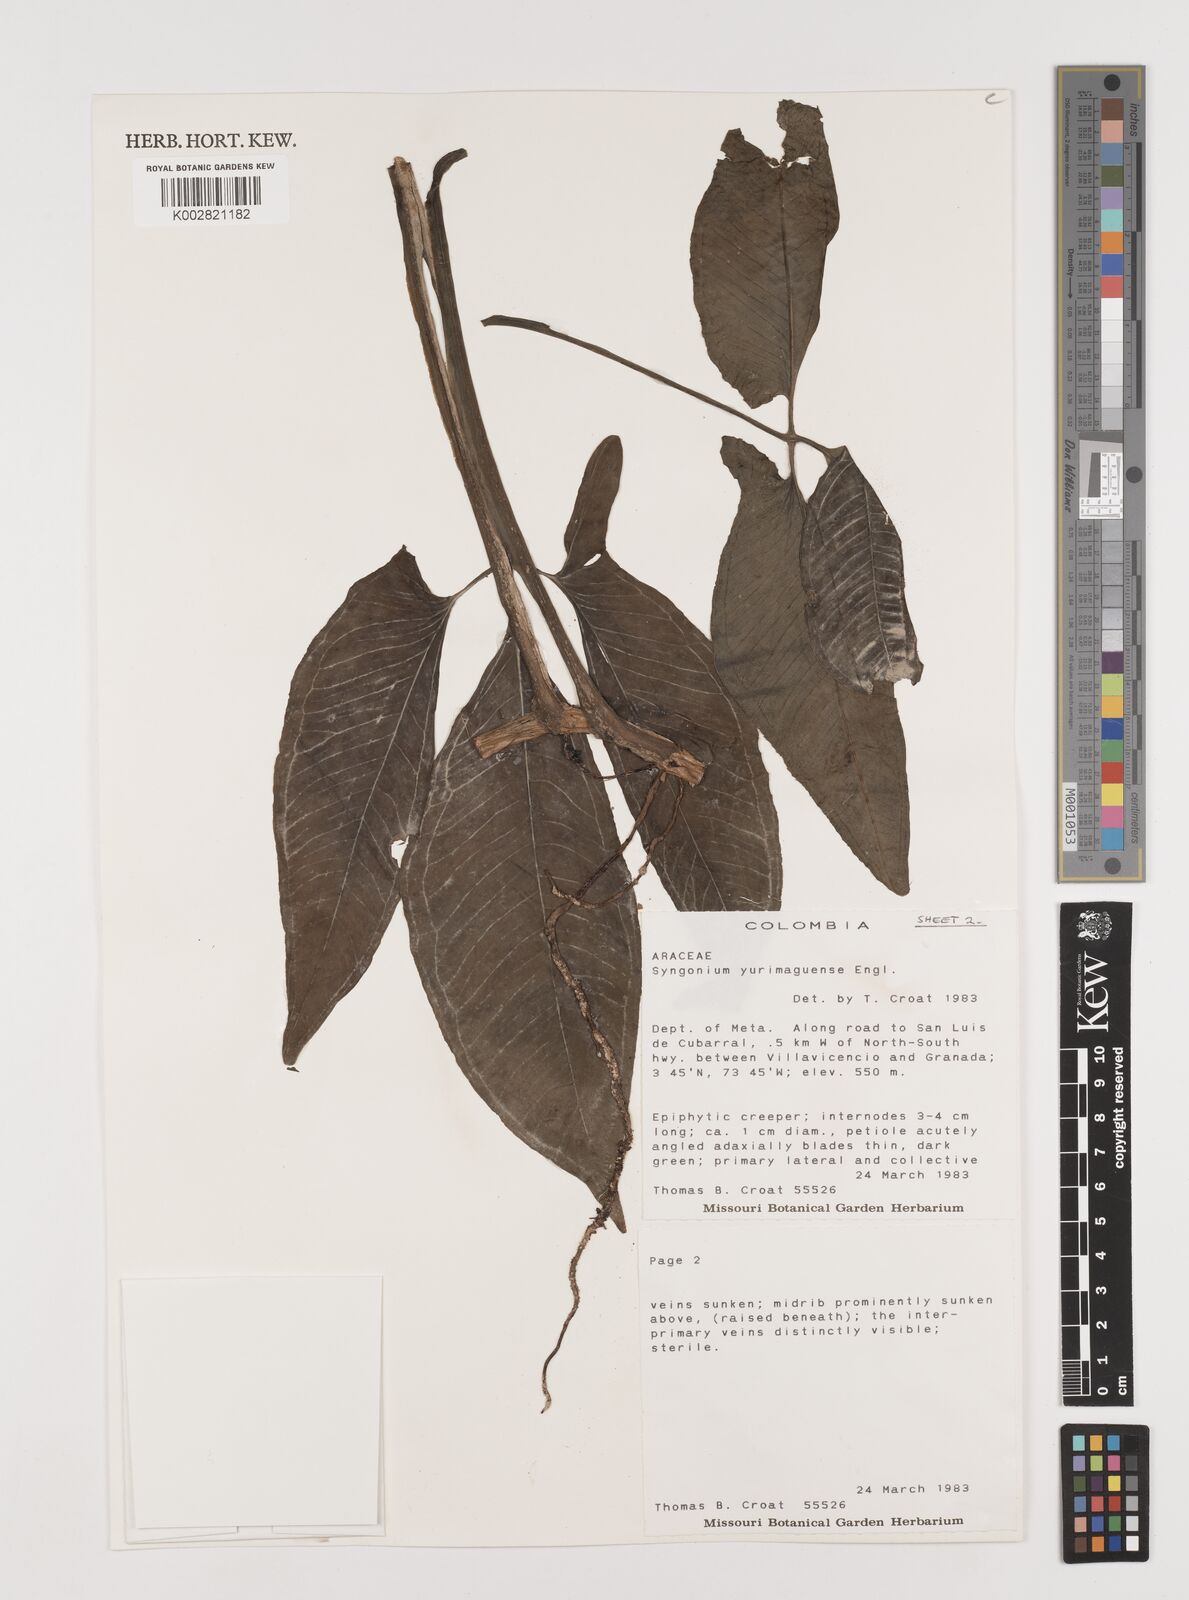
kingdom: Plantae
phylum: Tracheophyta
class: Liliopsida
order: Alismatales
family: Araceae
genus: Syngonium
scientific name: Syngonium yurimaguense
